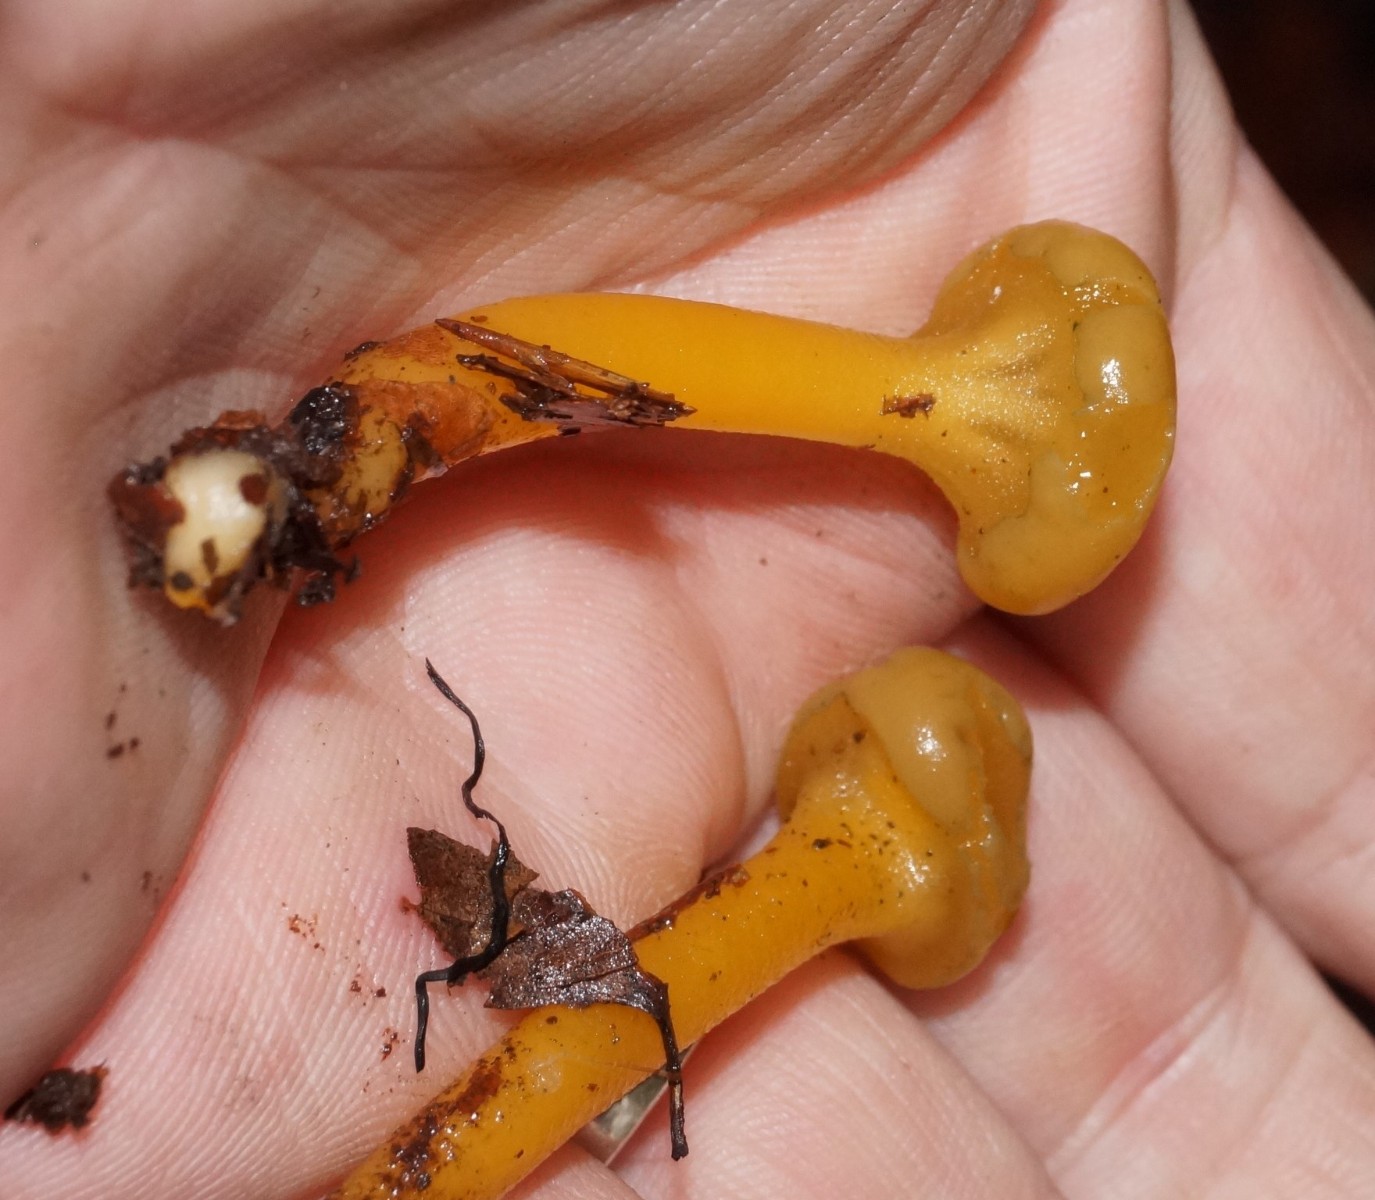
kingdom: Fungi
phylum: Ascomycota
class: Leotiomycetes
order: Leotiales
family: Leotiaceae
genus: Leotia
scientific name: Leotia lubrica
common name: ravsvamp
